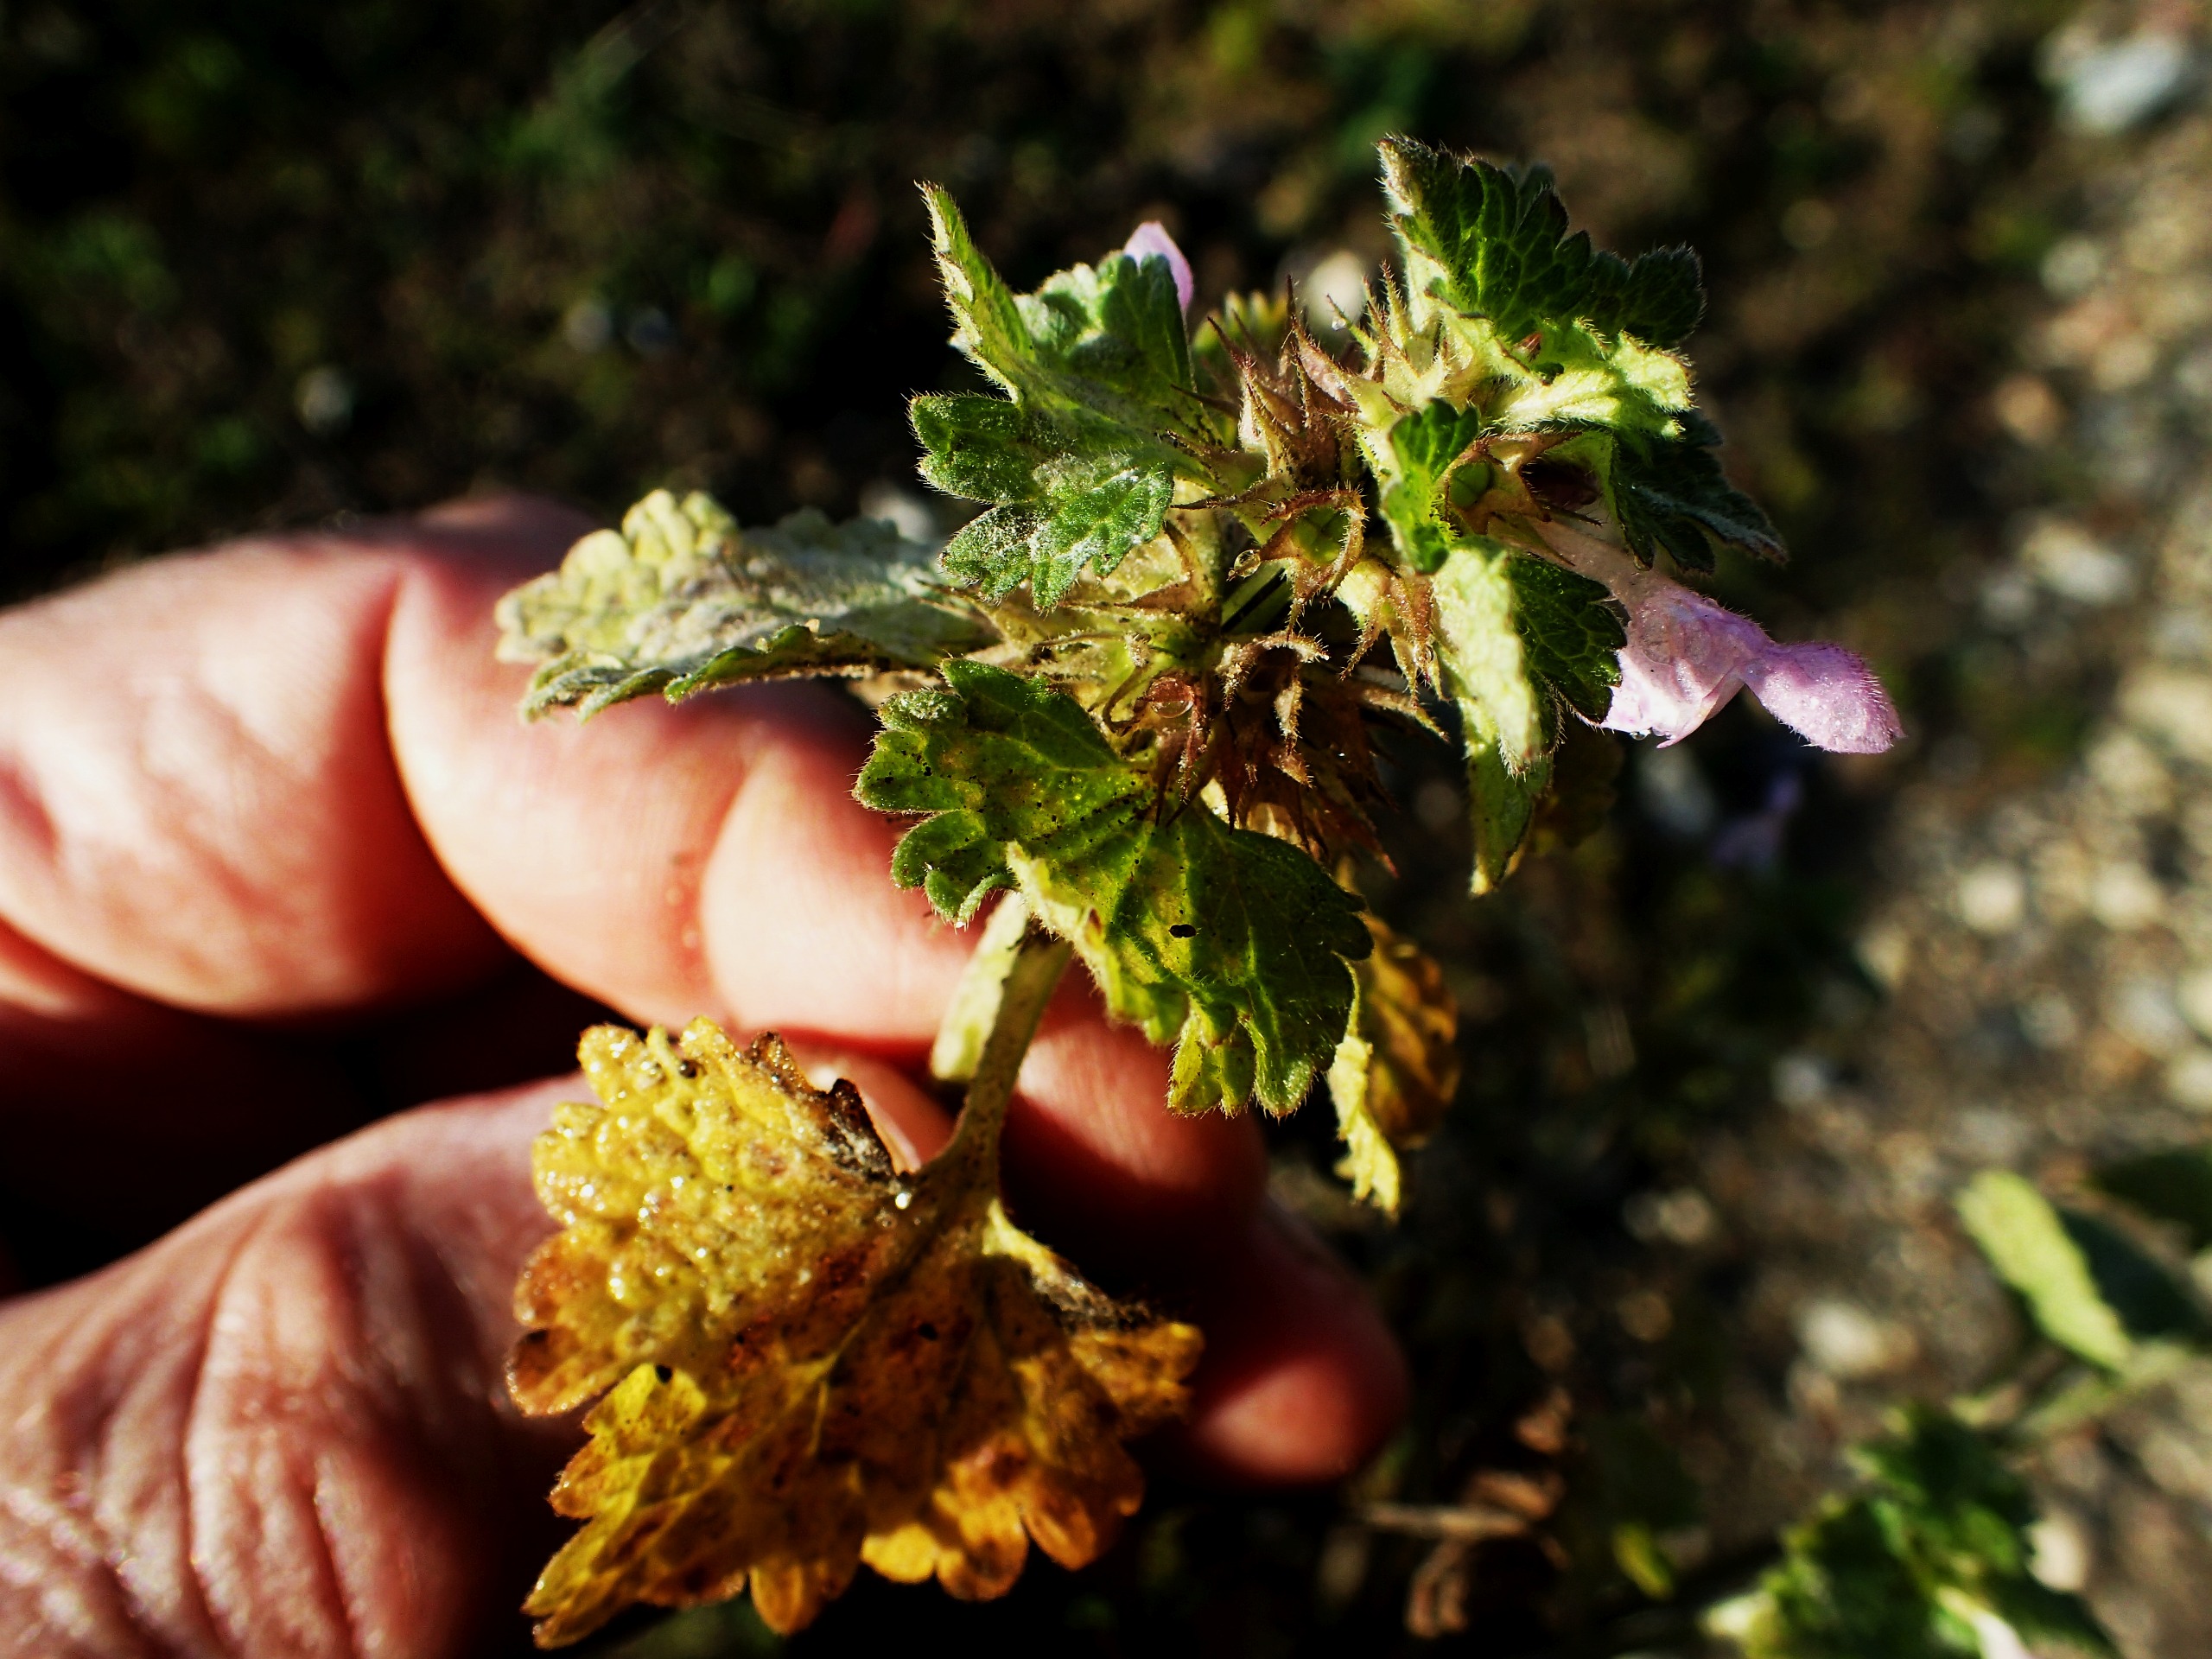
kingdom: Plantae
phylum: Tracheophyta
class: Magnoliopsida
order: Lamiales
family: Lamiaceae
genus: Lamium
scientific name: Lamium hybridum
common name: Fliget tvetand
